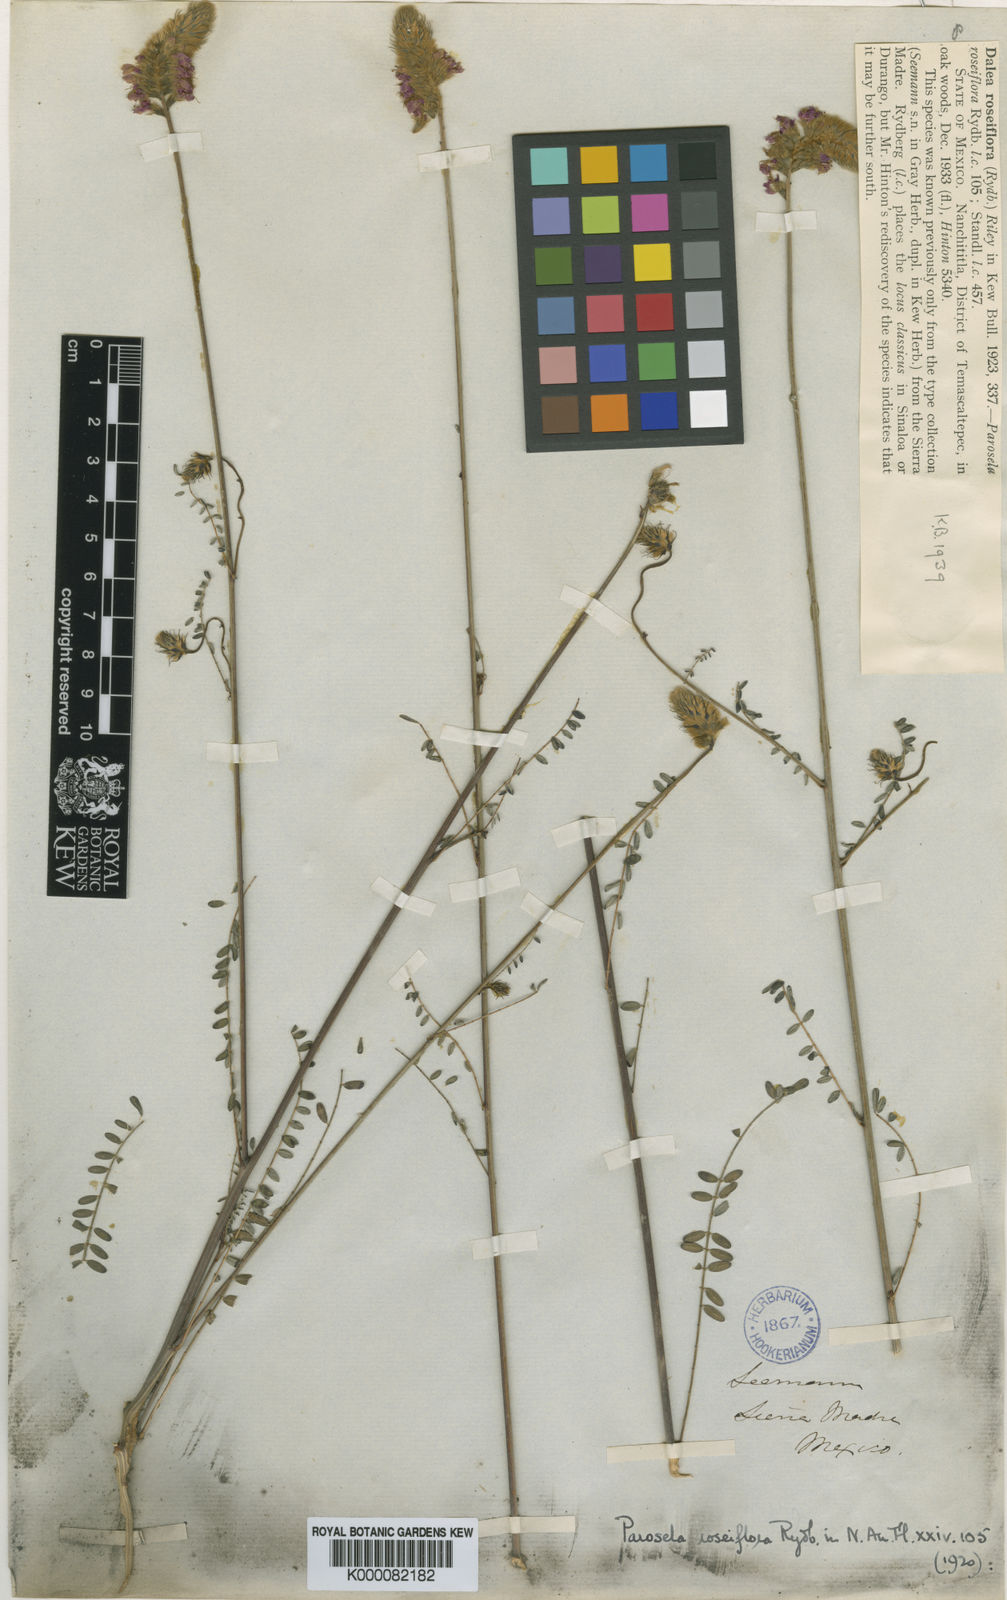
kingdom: Plantae
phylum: Tracheophyta
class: Magnoliopsida
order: Fabales
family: Fabaceae
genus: Dalea
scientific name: Dalea polystachya
